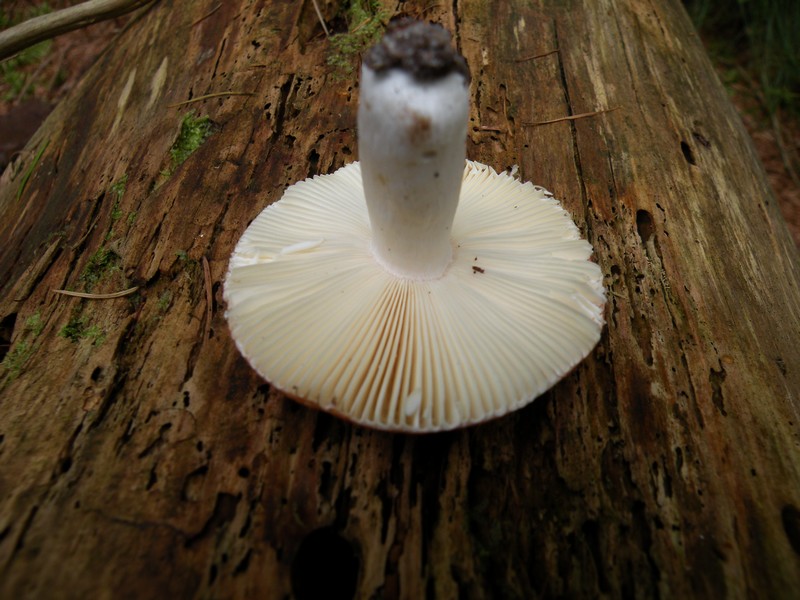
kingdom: Fungi
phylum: Basidiomycota
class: Agaricomycetes
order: Russulales
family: Russulaceae
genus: Russula
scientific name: Russula velenovskyi
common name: orangerød skørhat
